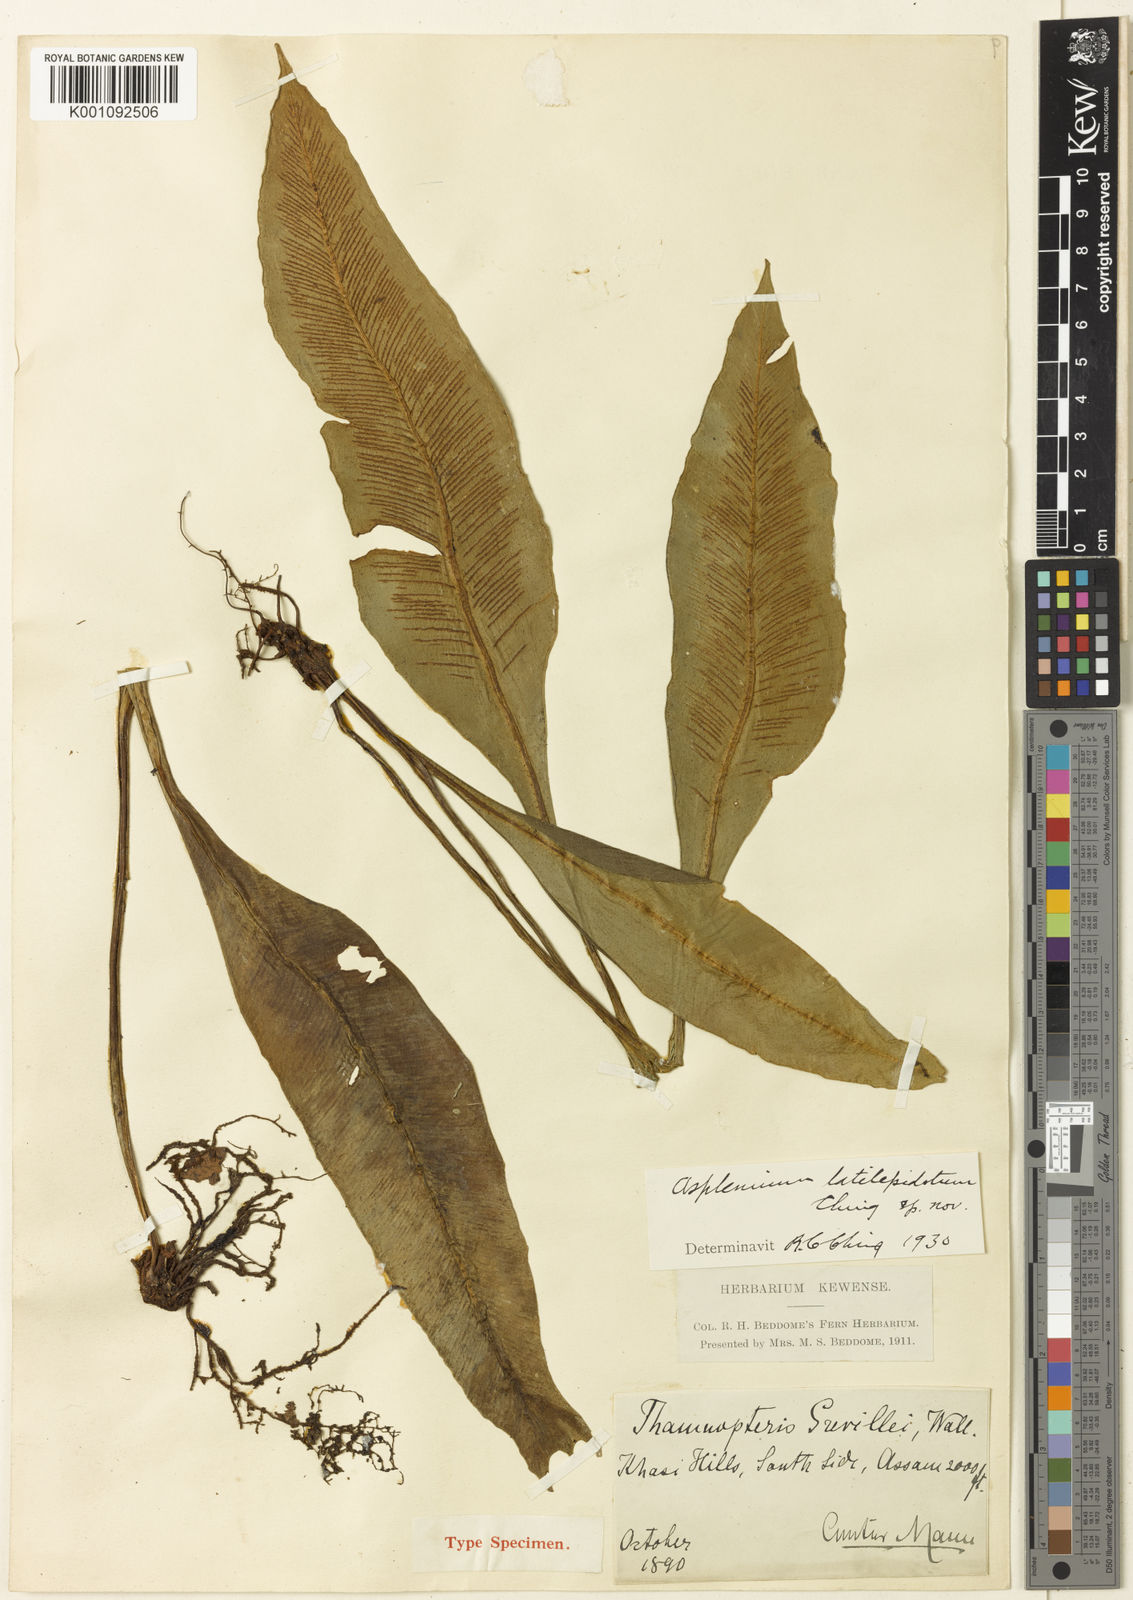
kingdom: Plantae
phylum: Tracheophyta
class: Polypodiopsida
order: Polypodiales
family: Aspleniaceae
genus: Asplenium
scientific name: Asplenium
